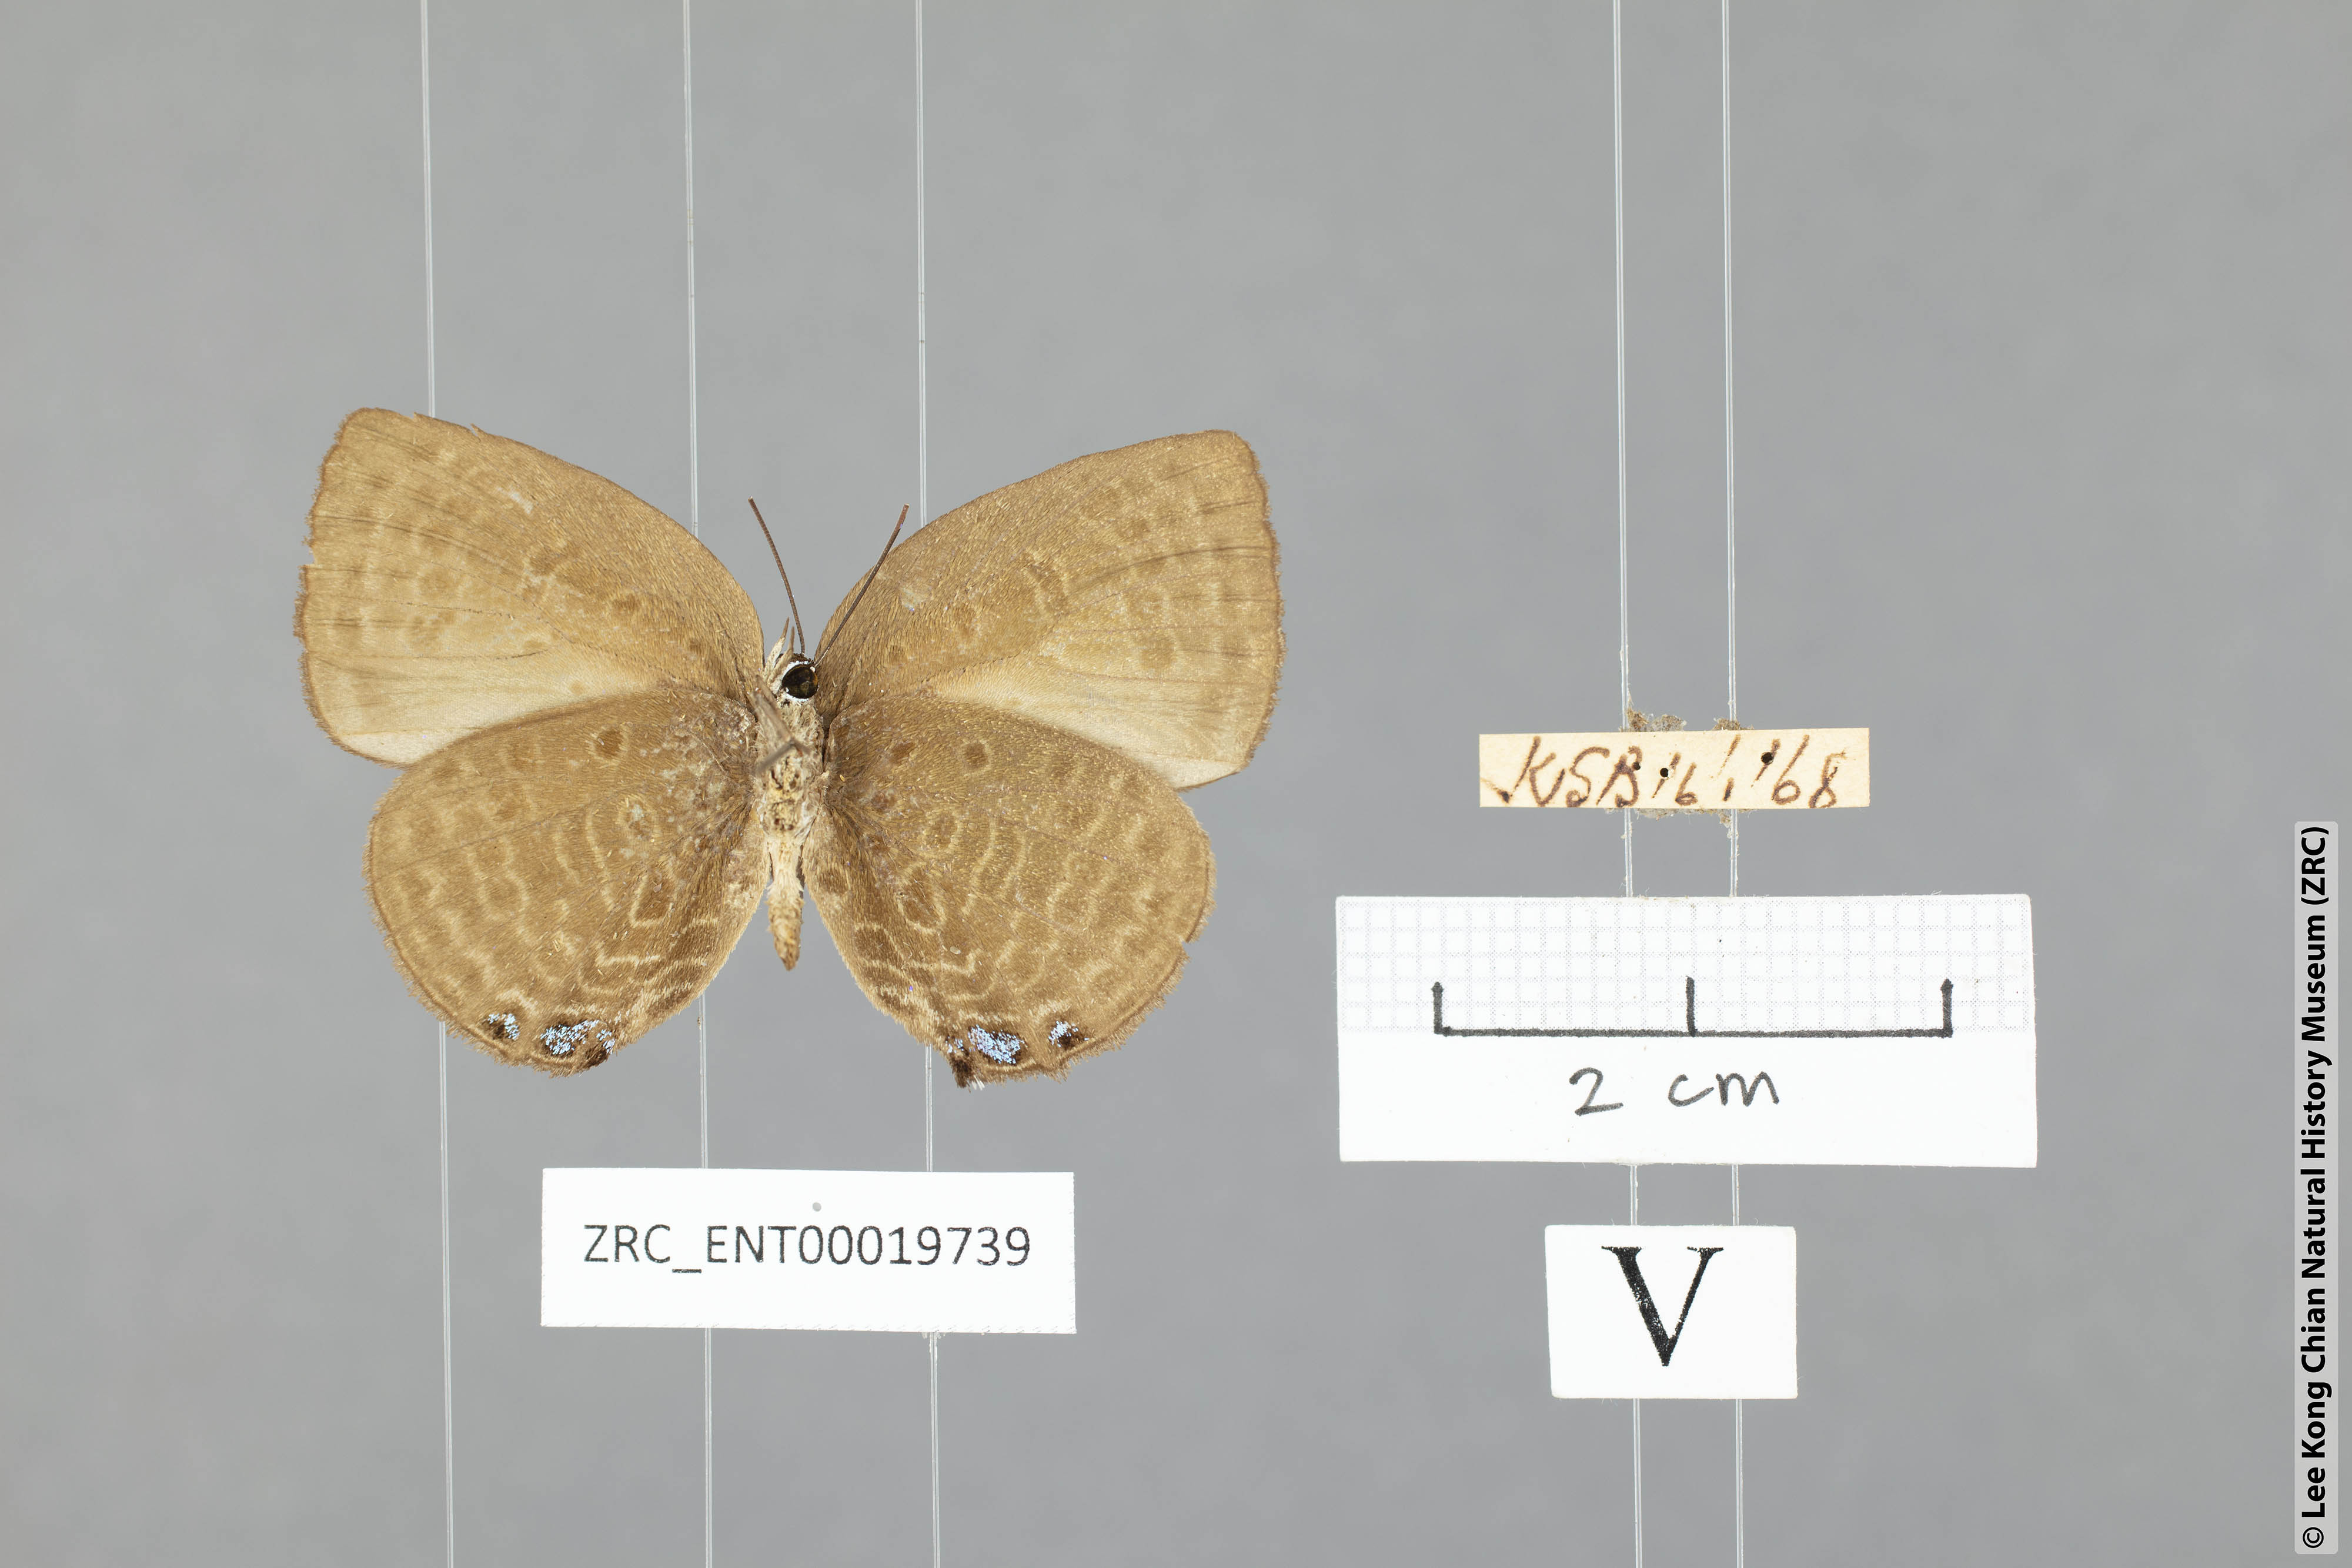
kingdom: Animalia
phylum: Arthropoda
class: Insecta
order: Lepidoptera
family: Lycaenidae
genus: Arhopala
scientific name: Arhopala
